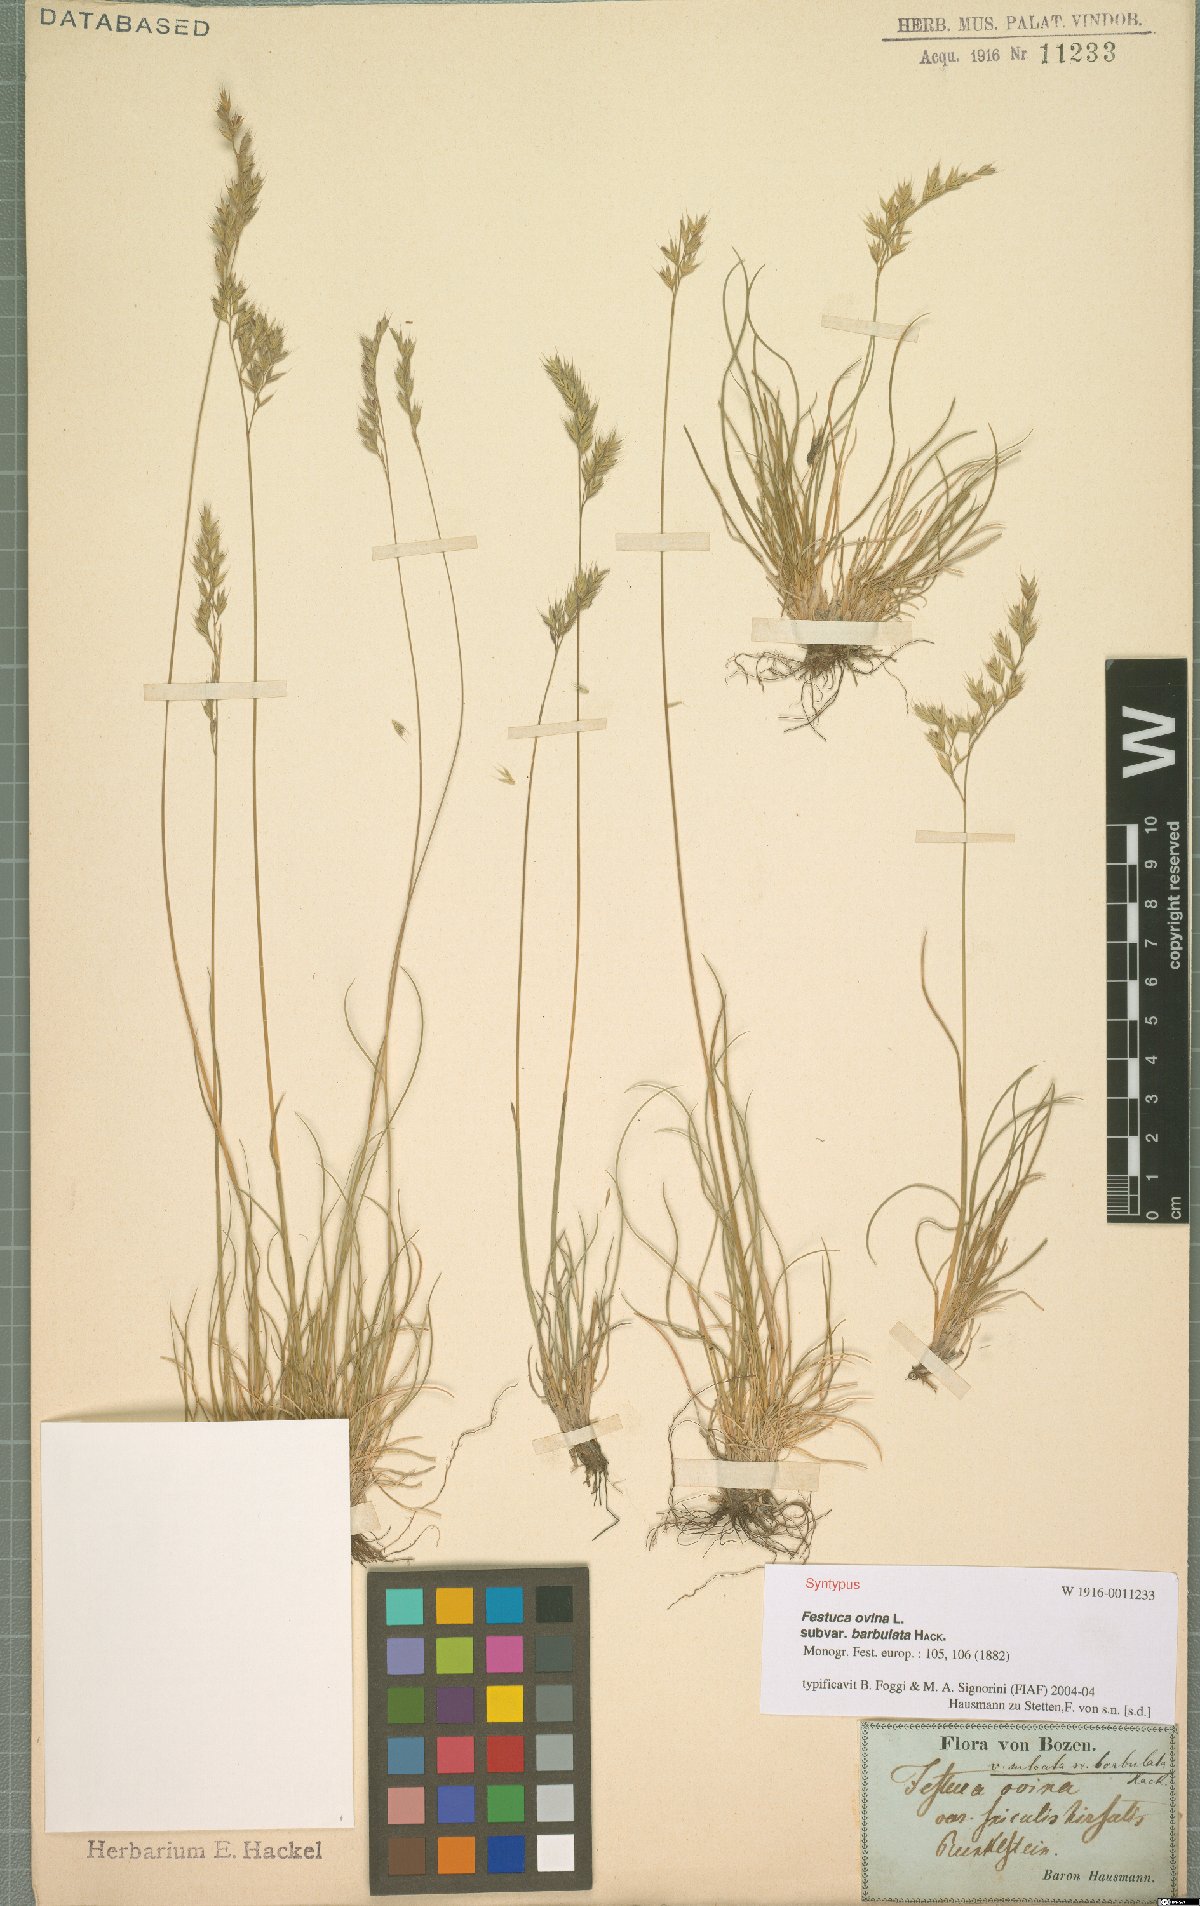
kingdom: Plantae
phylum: Tracheophyta
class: Liliopsida
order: Poales
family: Poaceae
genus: Festuca
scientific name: Festuca ovina
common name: Sheep fescue
